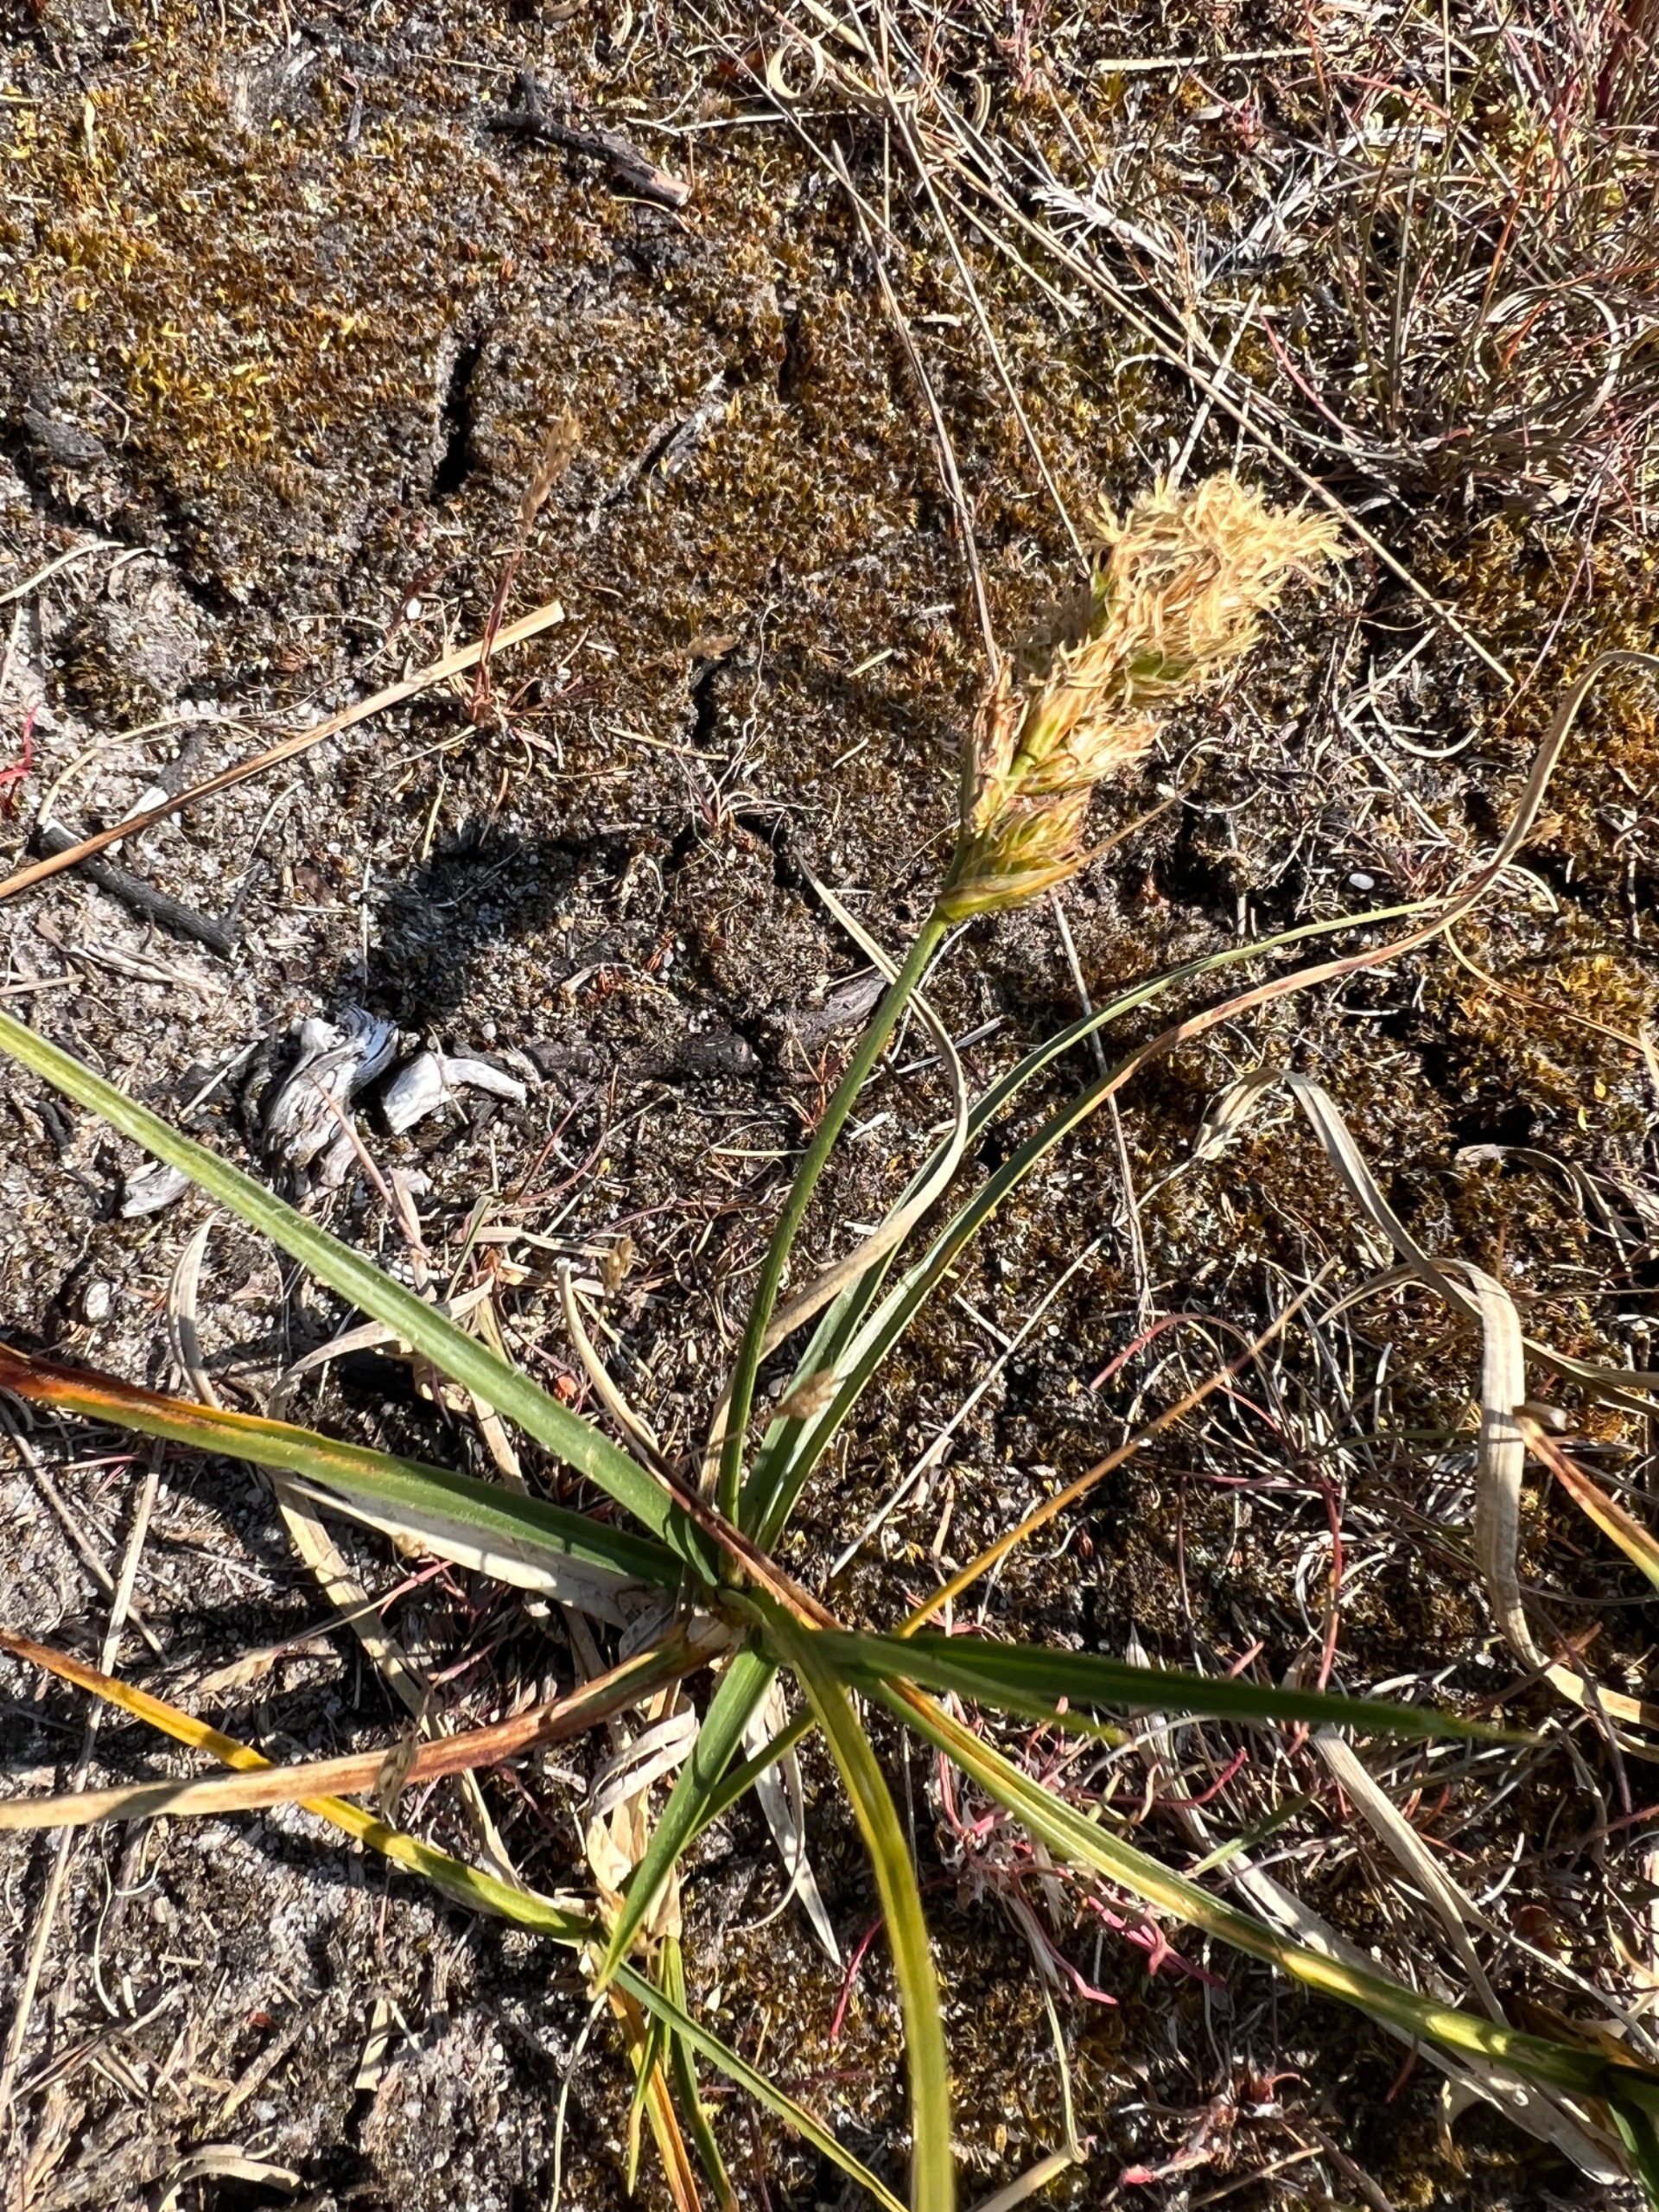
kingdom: Plantae
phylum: Tracheophyta
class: Liliopsida
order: Poales
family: Cyperaceae
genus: Carex
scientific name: Carex arenaria
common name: Sand-star
